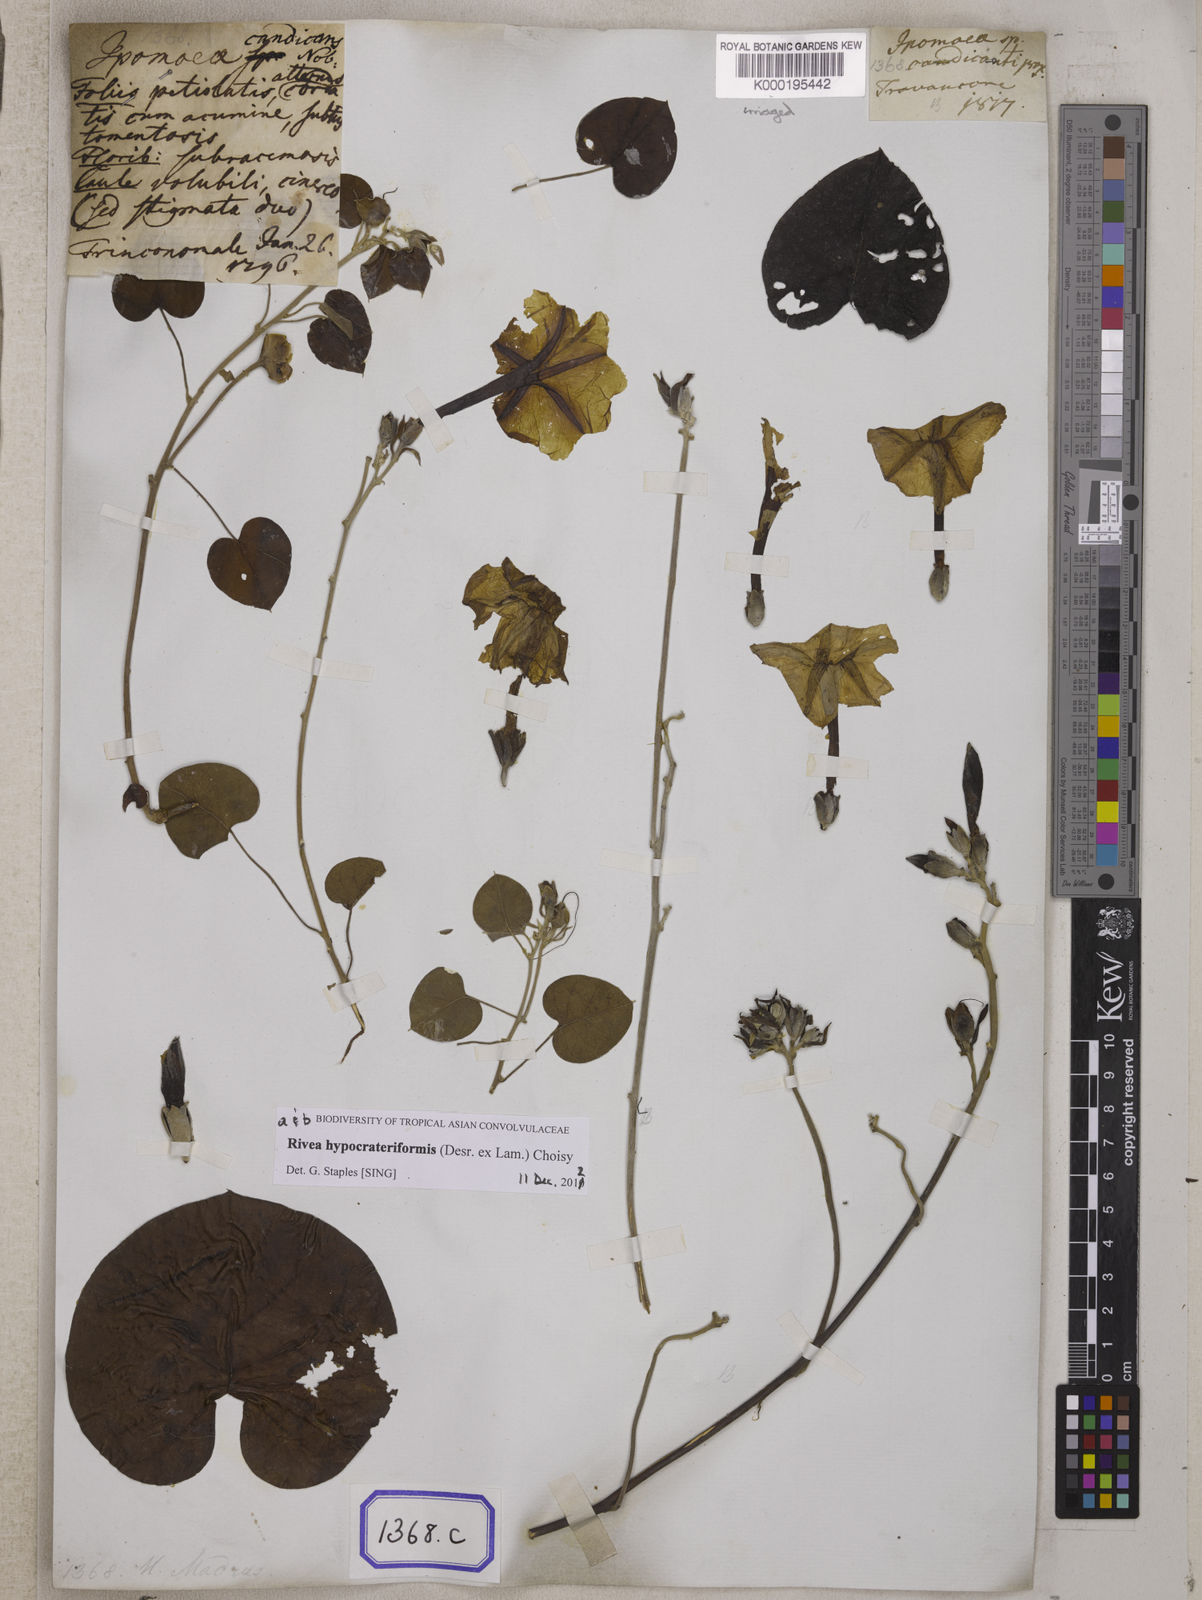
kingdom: Plantae
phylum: Tracheophyta
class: Magnoliopsida
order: Solanales
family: Convolvulaceae
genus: Ipomoea
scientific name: Ipomoea pandurata
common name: Man-of-the-earth
